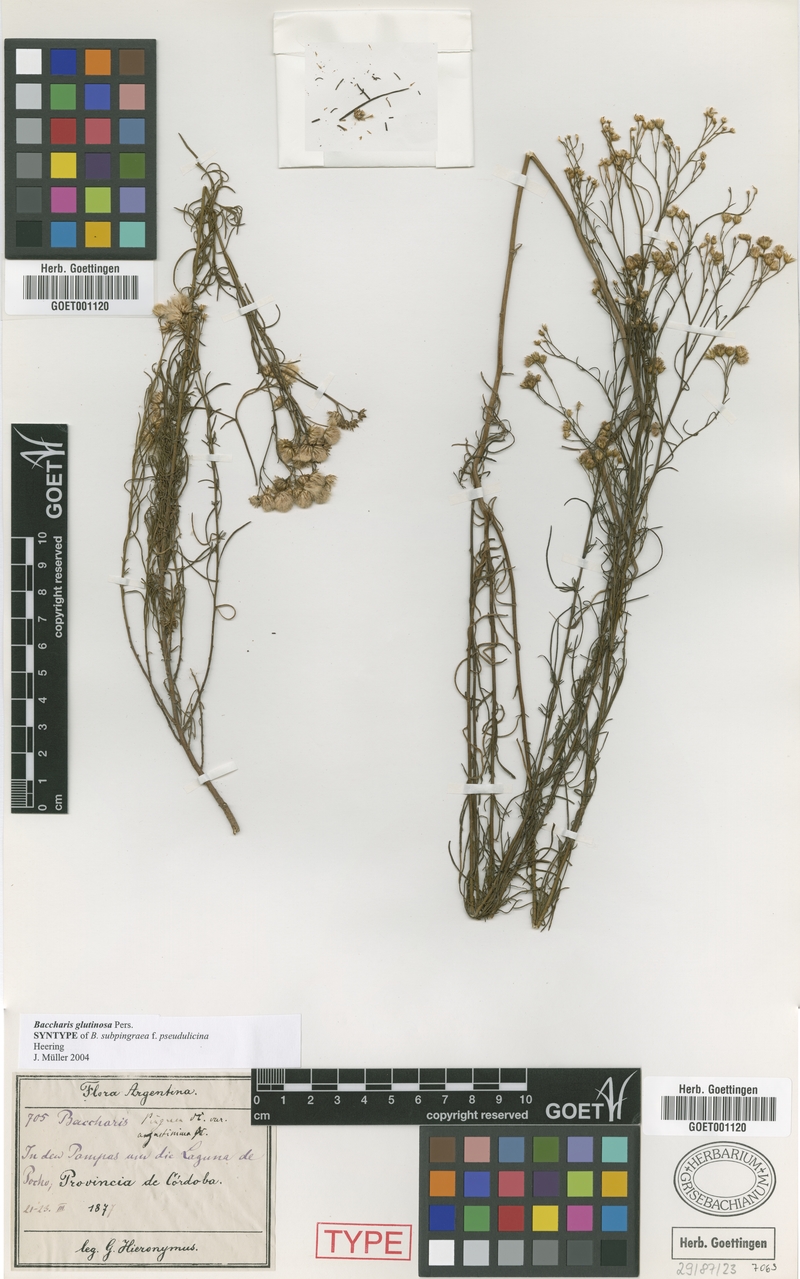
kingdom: Plantae
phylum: Tracheophyta
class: Magnoliopsida
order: Asterales
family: Asteraceae
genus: Baccharis
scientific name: Baccharis glutinosa
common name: Saltmarsh baccharis
